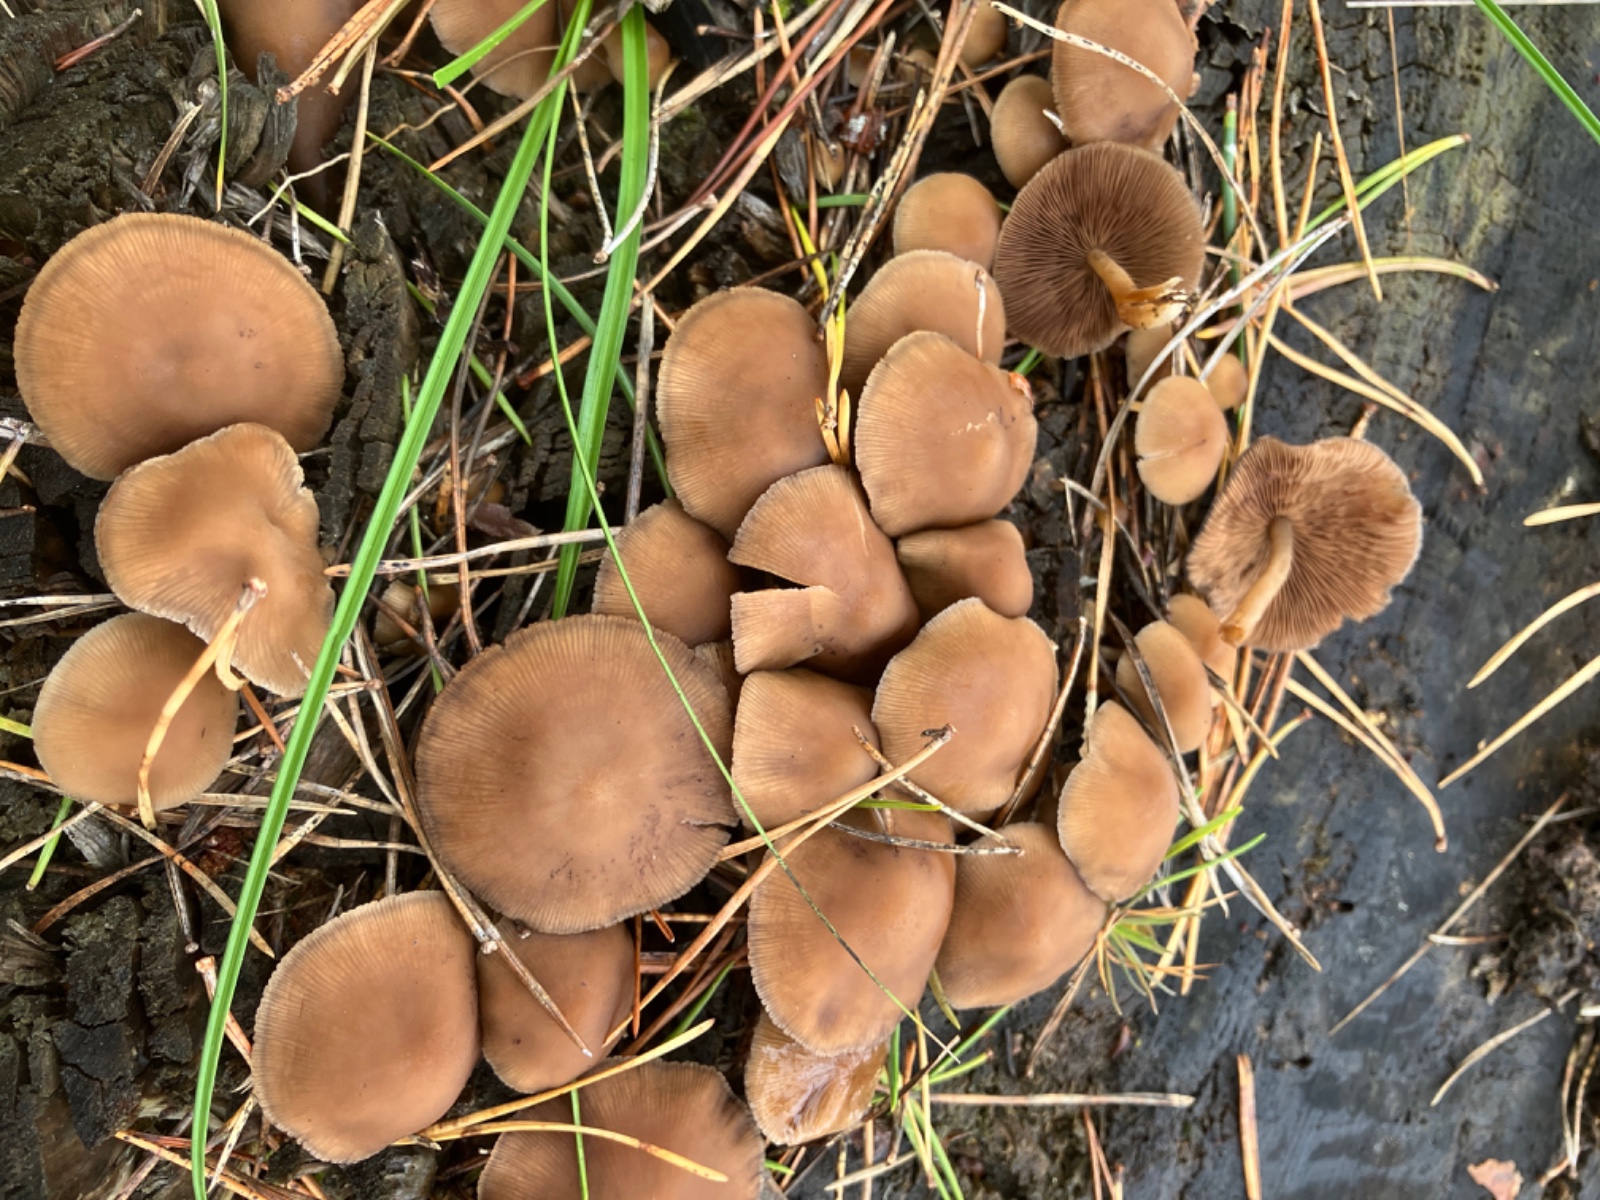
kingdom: Fungi
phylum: Basidiomycota
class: Agaricomycetes
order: Agaricales
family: Psathyrellaceae
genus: Psathyrella
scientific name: Psathyrella piluliformis
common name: lysstokket mørkhat
